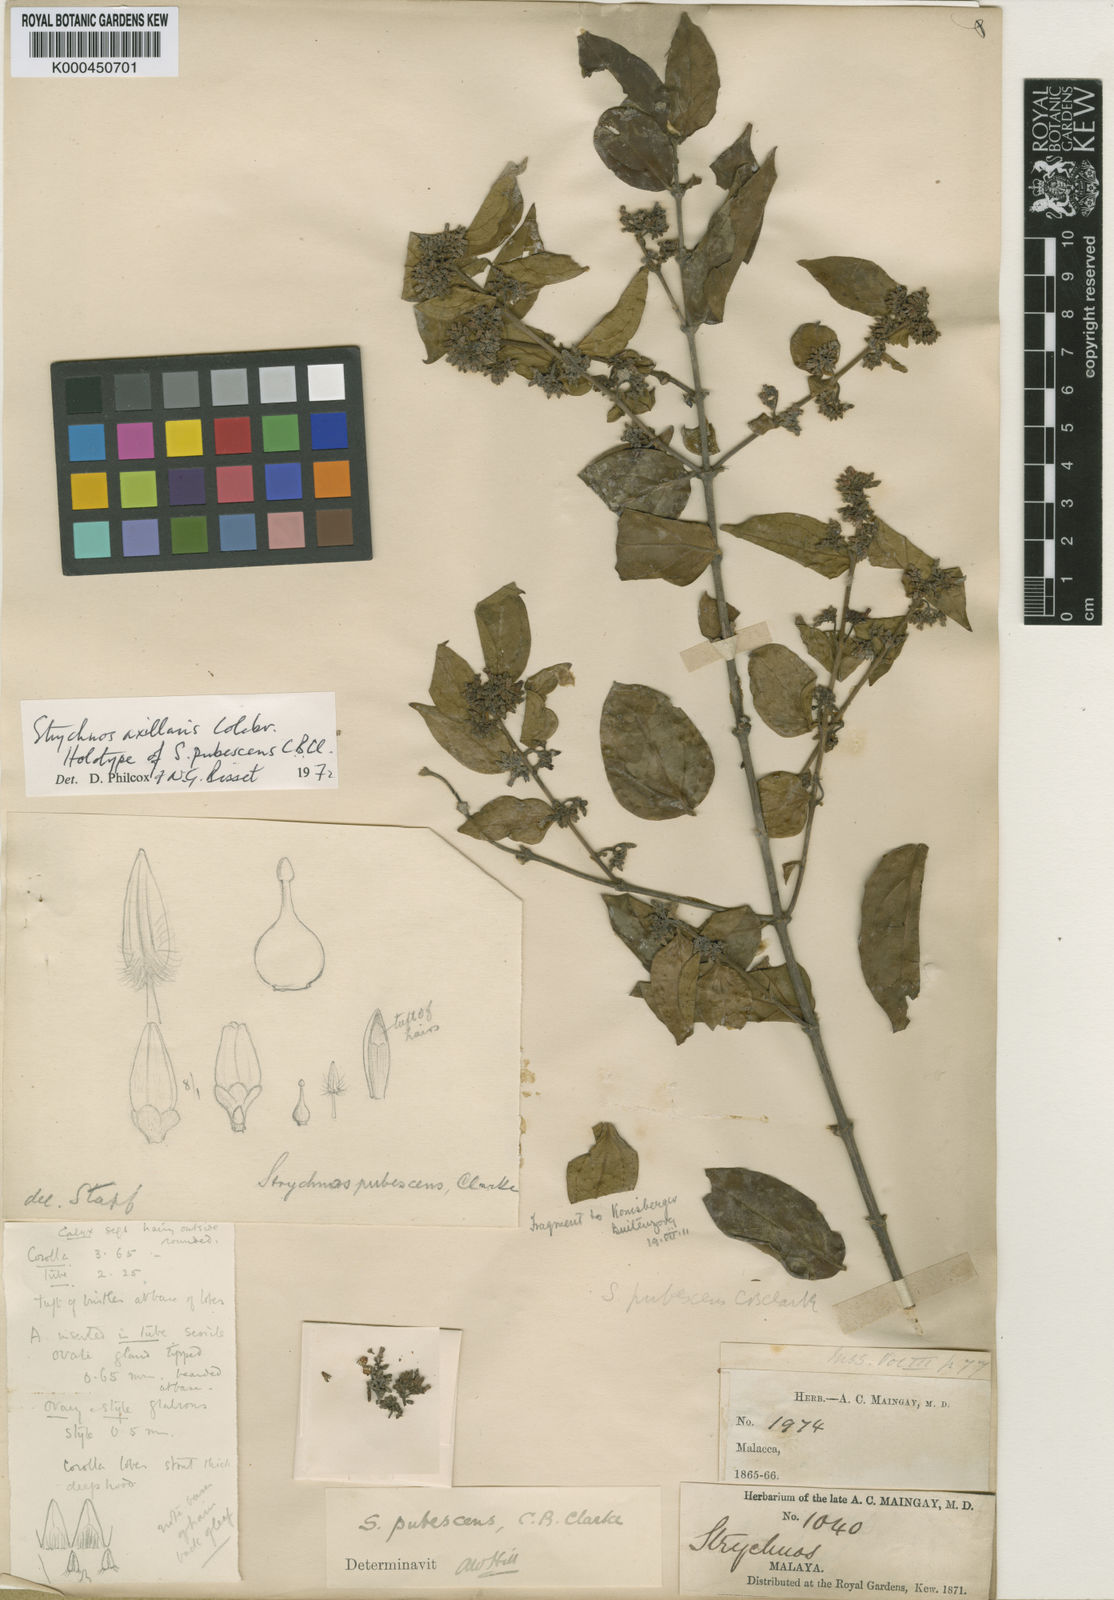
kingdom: Plantae
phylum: Tracheophyta
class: Magnoliopsida
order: Gentianales
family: Loganiaceae
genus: Strychnos
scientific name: Strychnos axillaris
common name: Strychninebush
